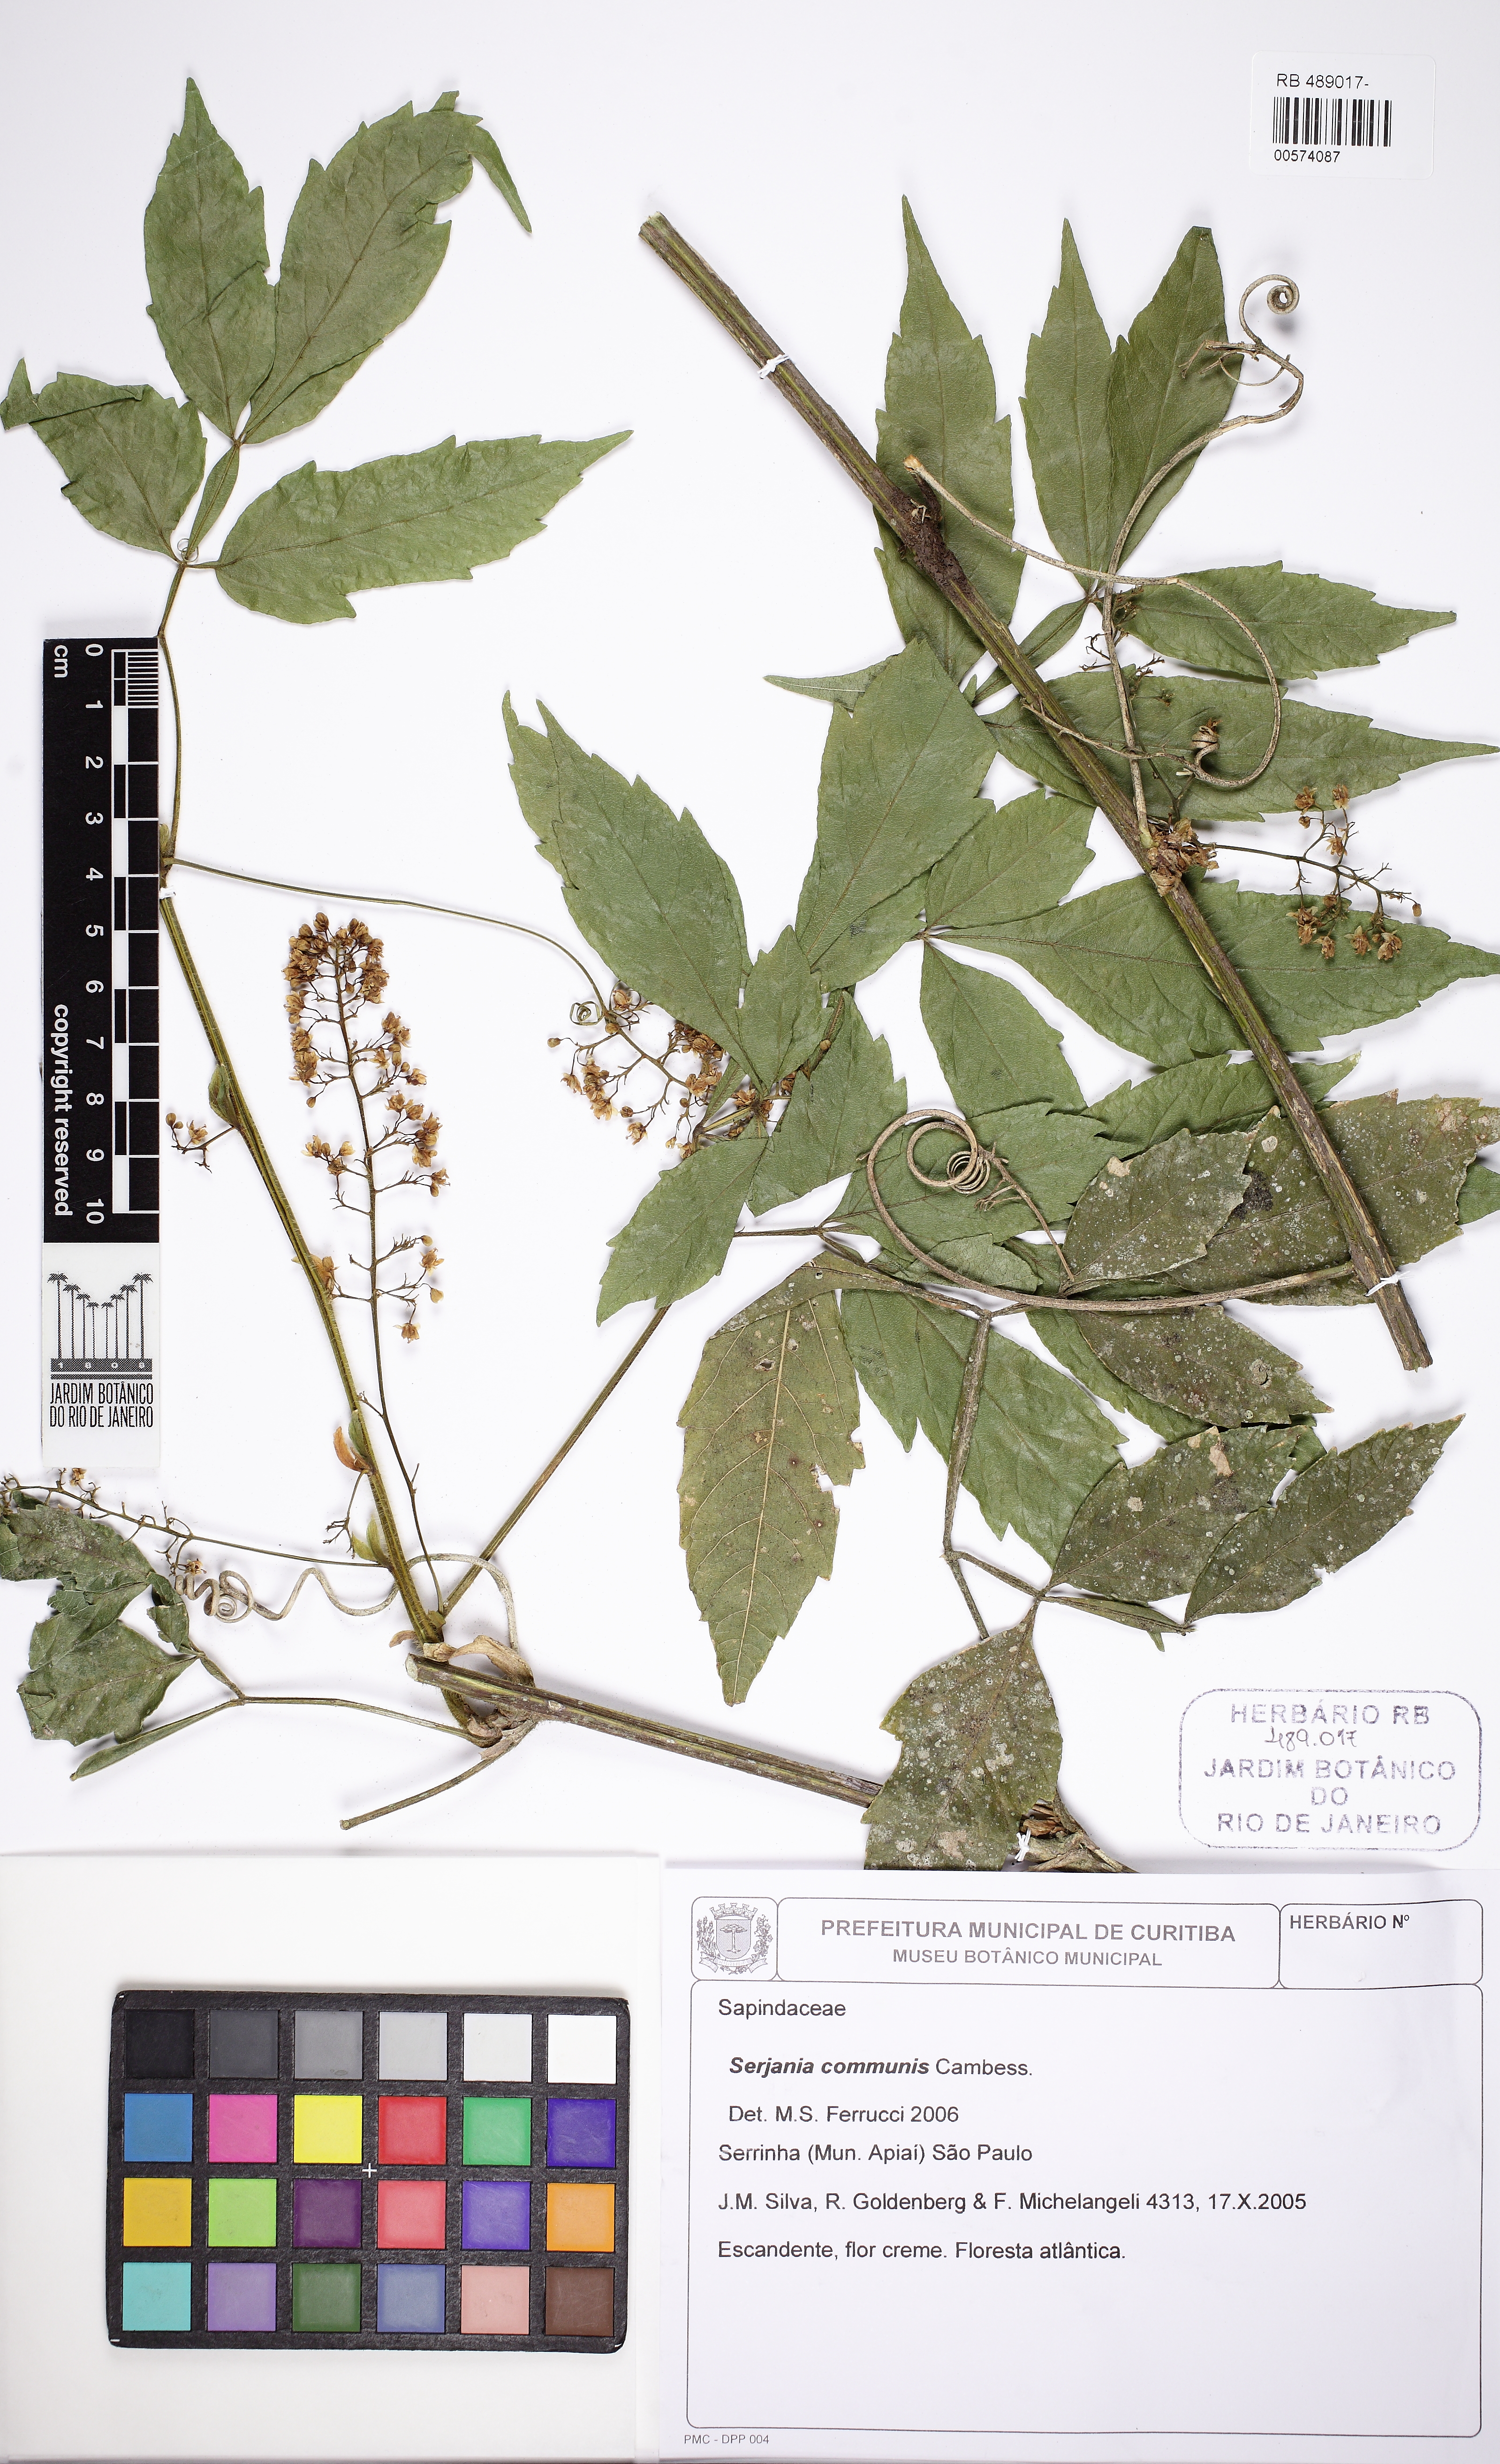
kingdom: Plantae
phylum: Tracheophyta
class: Magnoliopsida
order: Sapindales
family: Sapindaceae
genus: Serjania
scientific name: Serjania communis
